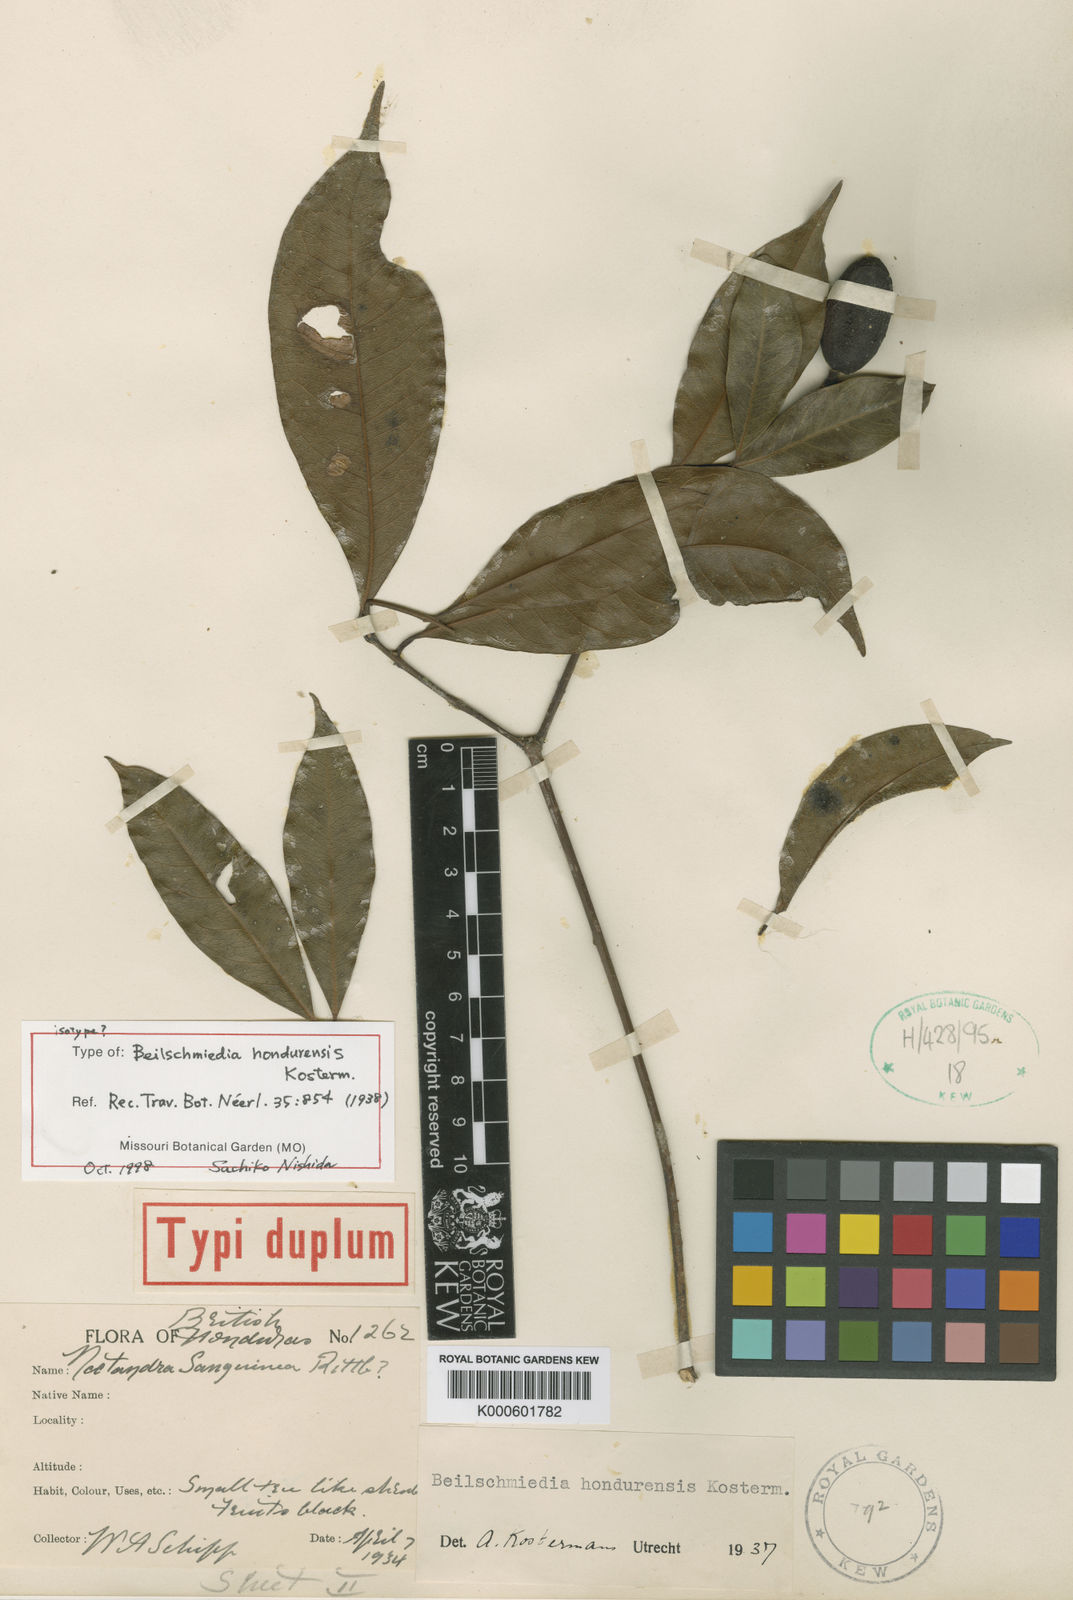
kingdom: Plantae
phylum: Tracheophyta
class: Magnoliopsida
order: Laurales
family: Lauraceae
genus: Beilschmiedia
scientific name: Beilschmiedia hondurensis
